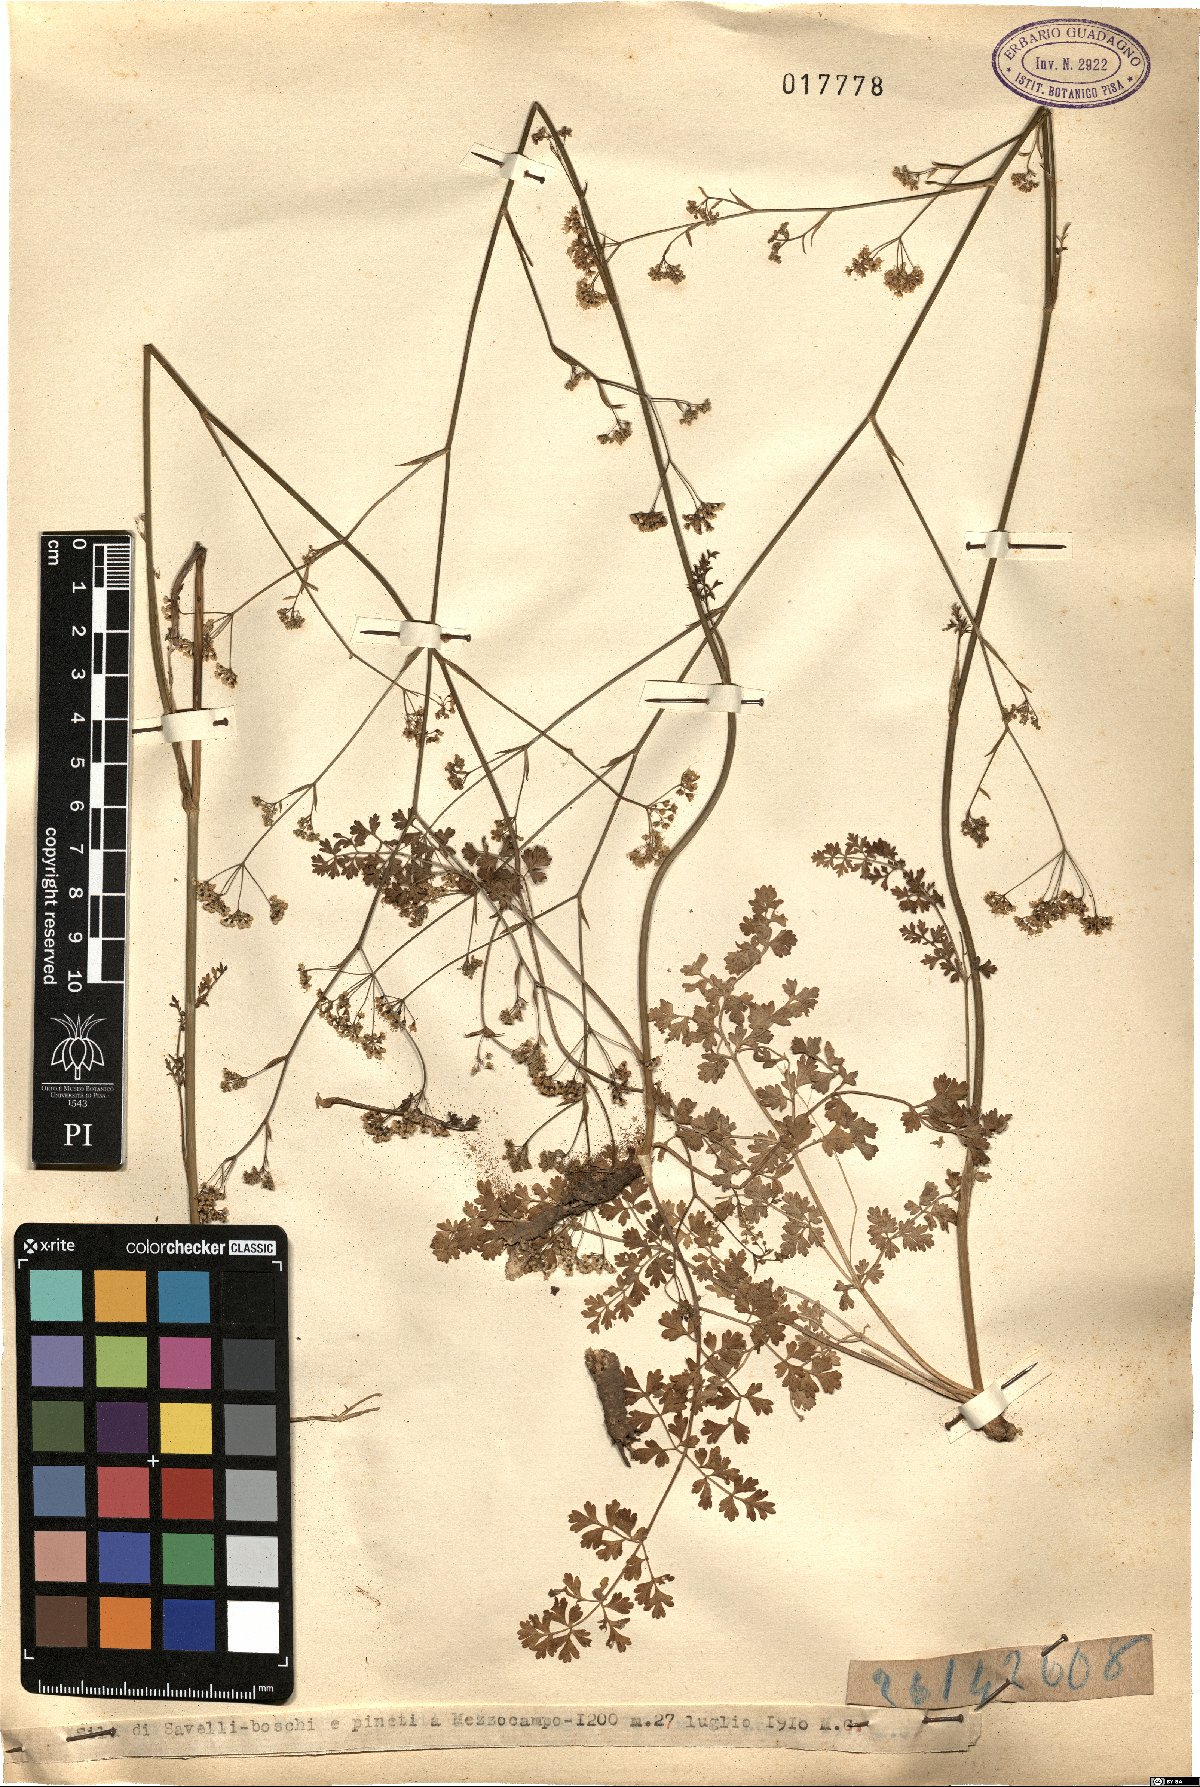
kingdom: Plantae
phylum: Tracheophyta
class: Magnoliopsida
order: Apiales
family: Apiaceae
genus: Pimpinella
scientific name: Pimpinella
